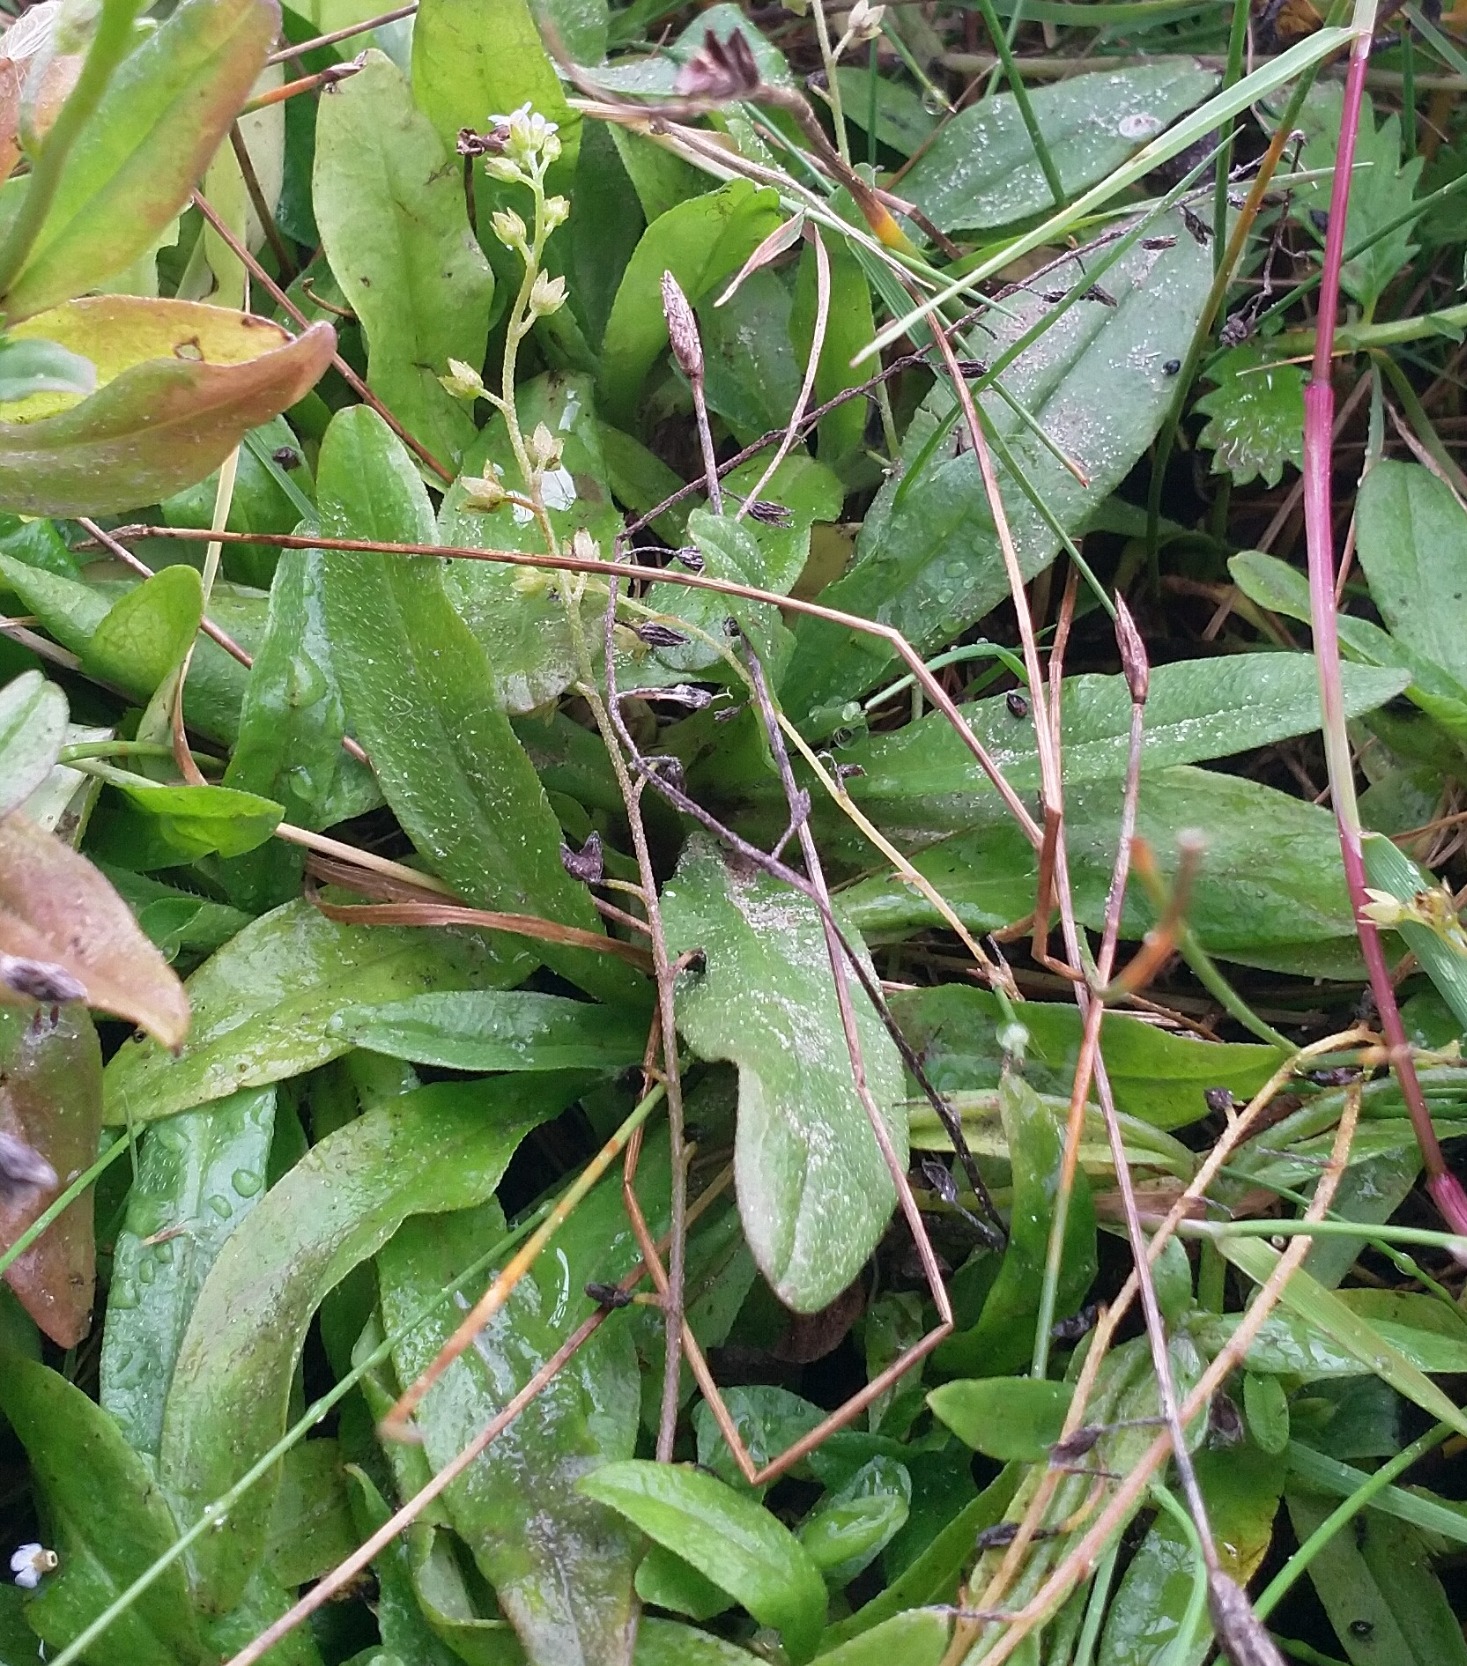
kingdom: Plantae
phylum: Tracheophyta
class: Magnoliopsida
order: Boraginales
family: Boraginaceae
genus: Myosotis
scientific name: Myosotis laxa
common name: Sump-forglemmigej
